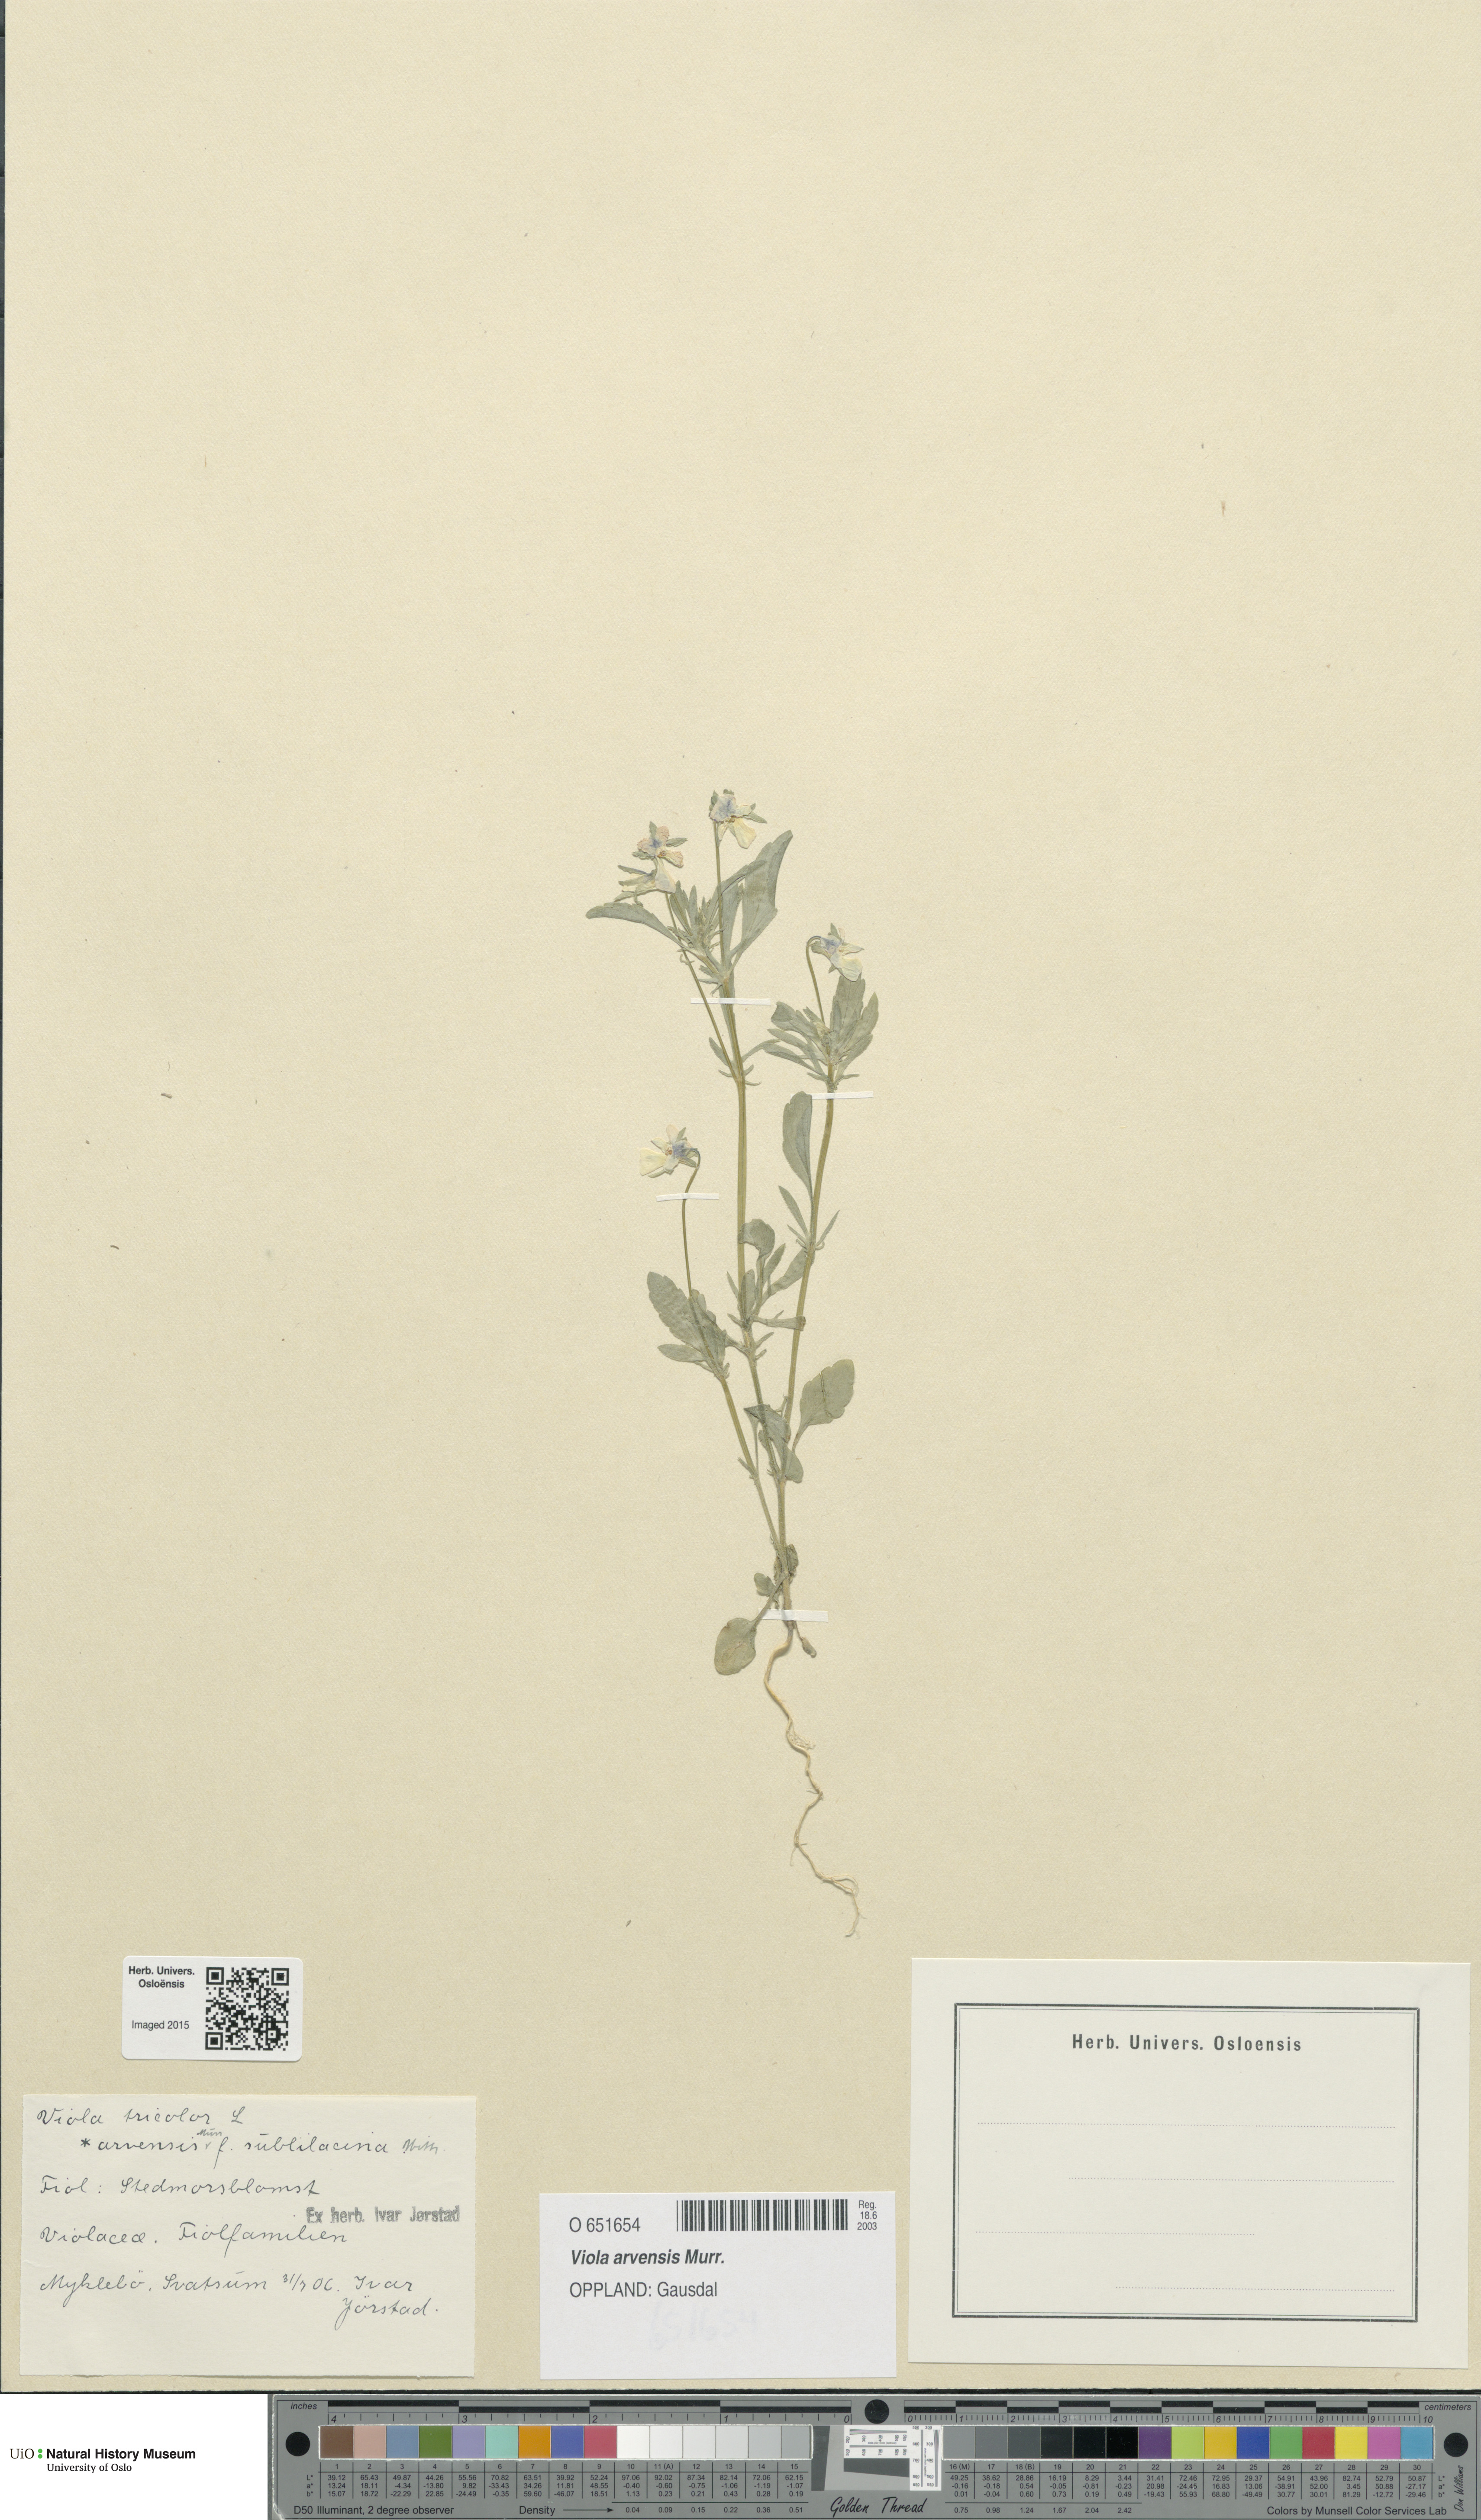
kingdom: Plantae
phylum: Tracheophyta
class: Magnoliopsida
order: Malpighiales
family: Violaceae
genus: Viola
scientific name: Viola arvensis
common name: Field pansy
